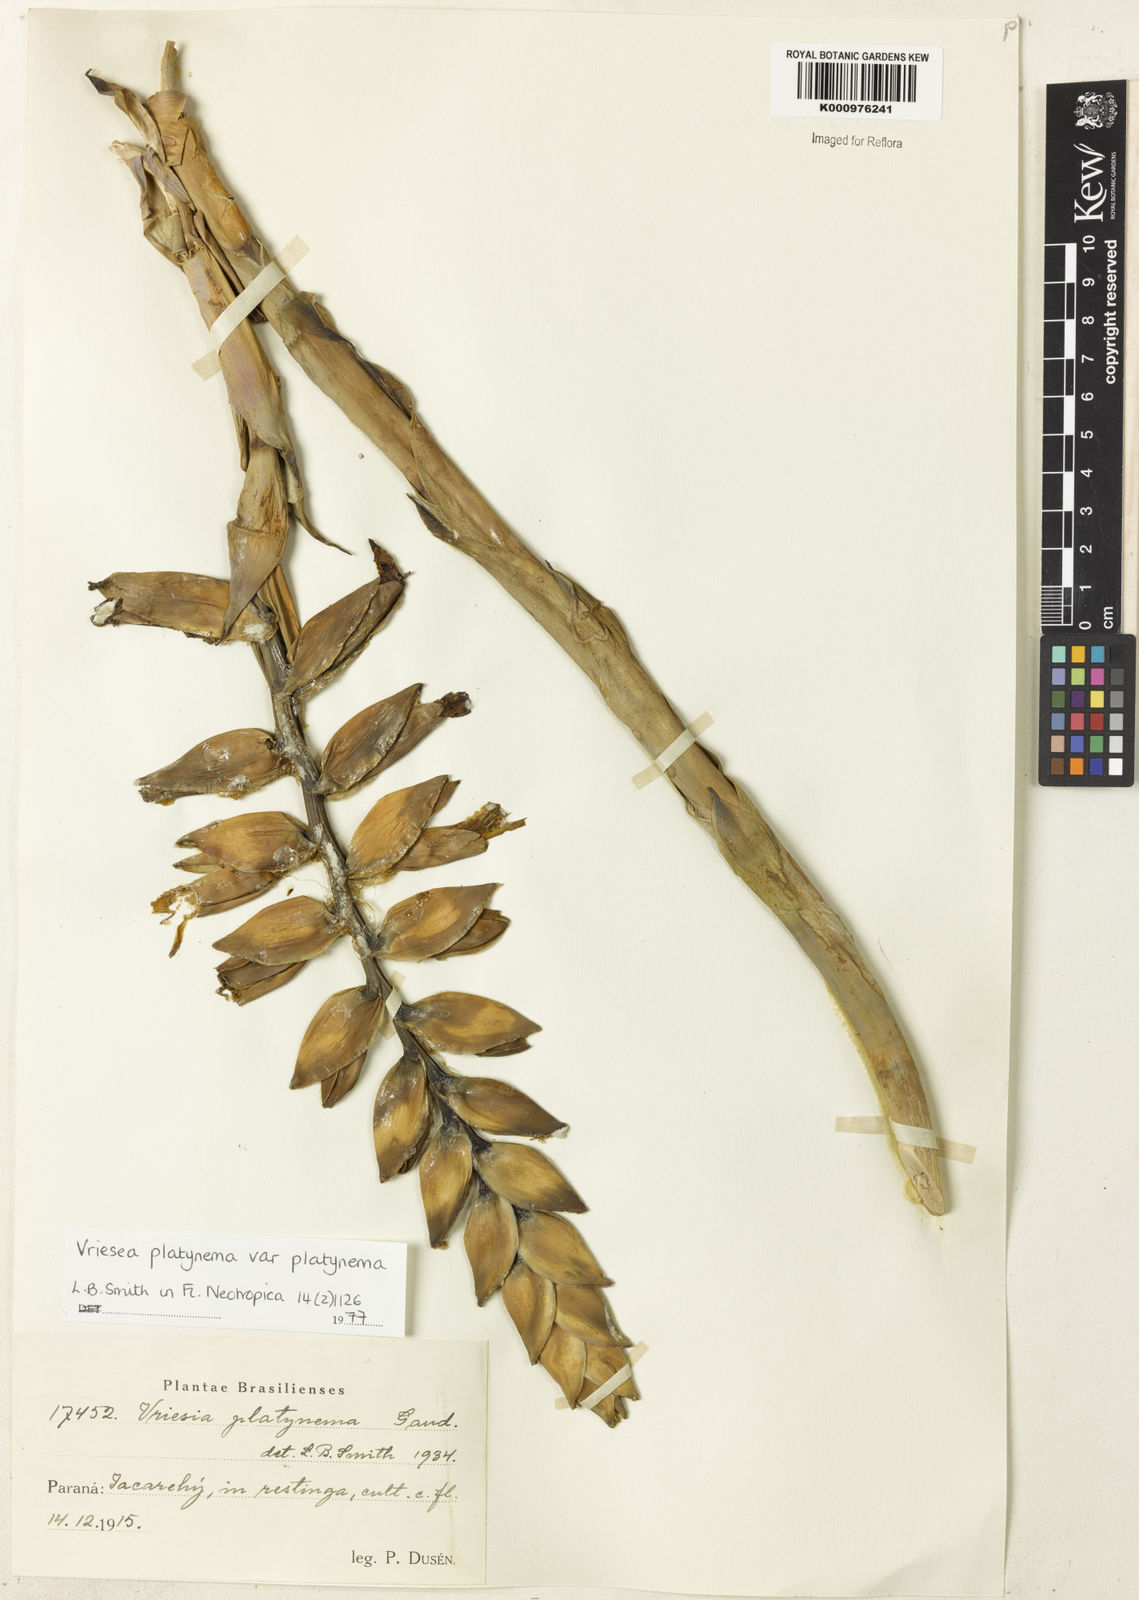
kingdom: Plantae
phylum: Tracheophyta
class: Liliopsida
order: Poales
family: Bromeliaceae
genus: Vriesea
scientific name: Vriesea platynema
